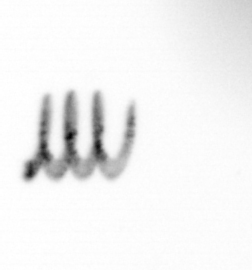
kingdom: Chromista
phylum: Ochrophyta
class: Bacillariophyceae
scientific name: Bacillariophyceae
